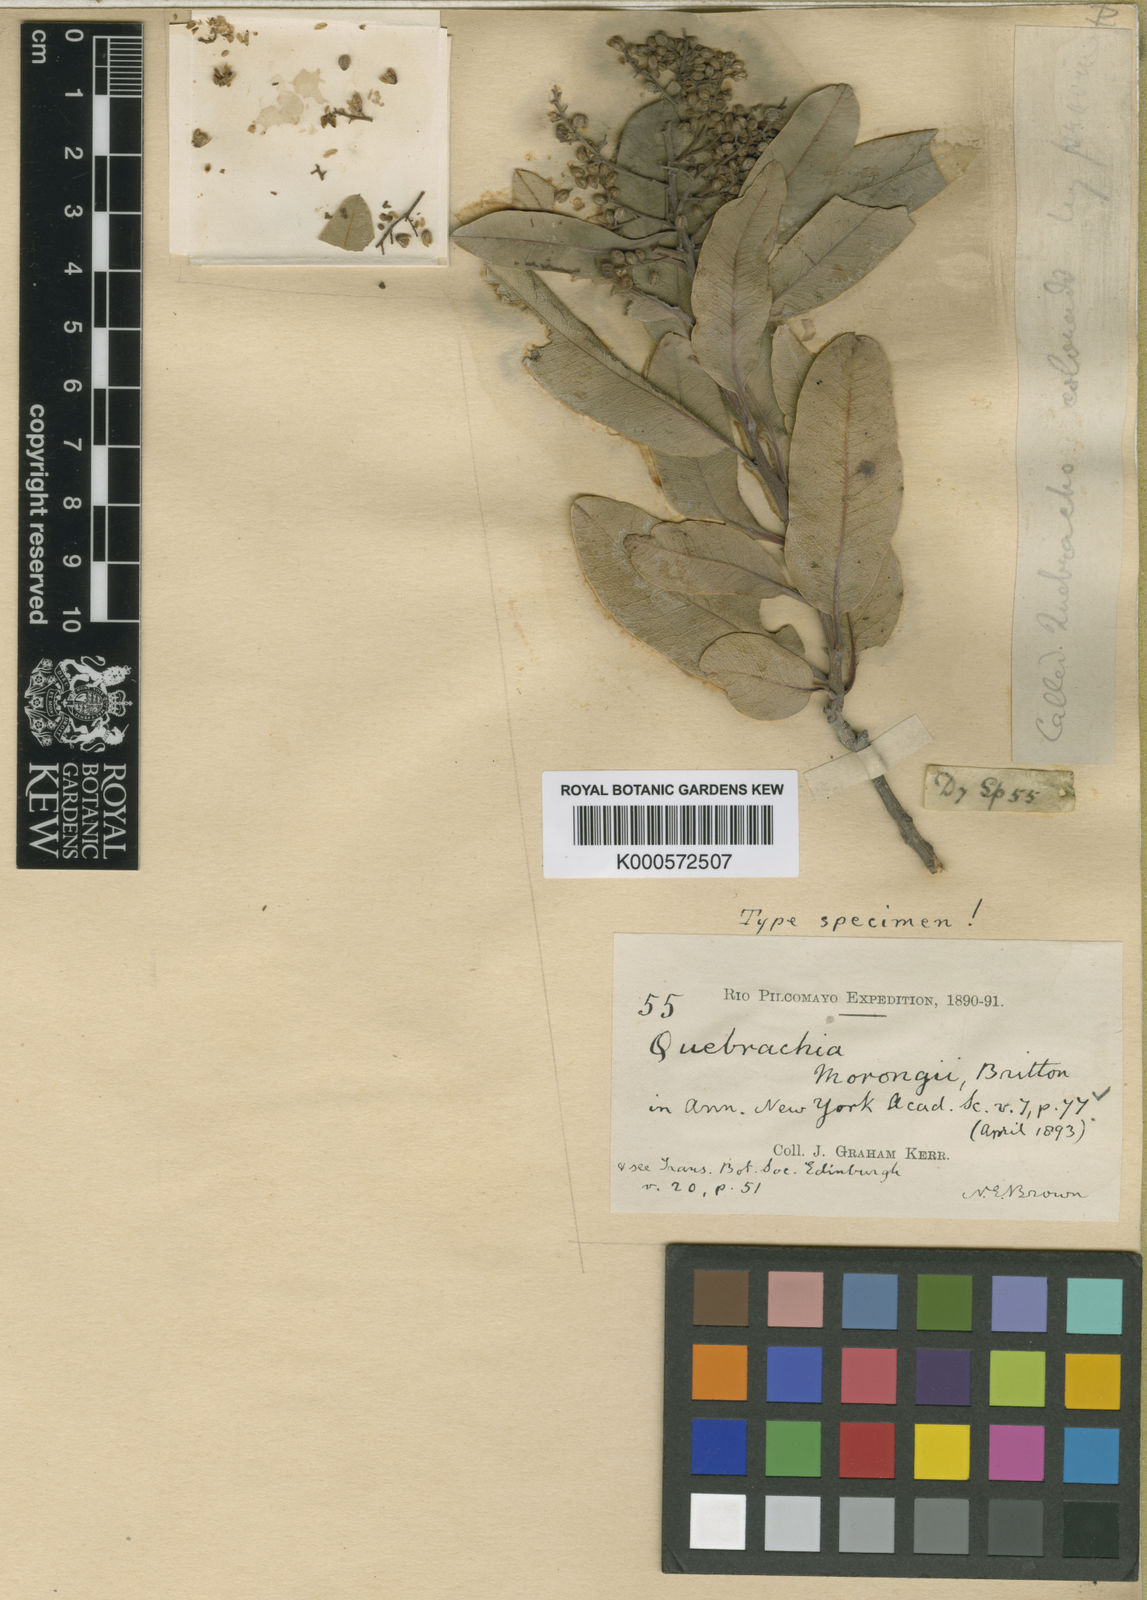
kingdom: Plantae
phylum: Tracheophyta
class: Magnoliopsida
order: Sapindales
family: Anacardiaceae
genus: Schinopsis
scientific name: Schinopsis balansae
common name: Red quebracho
